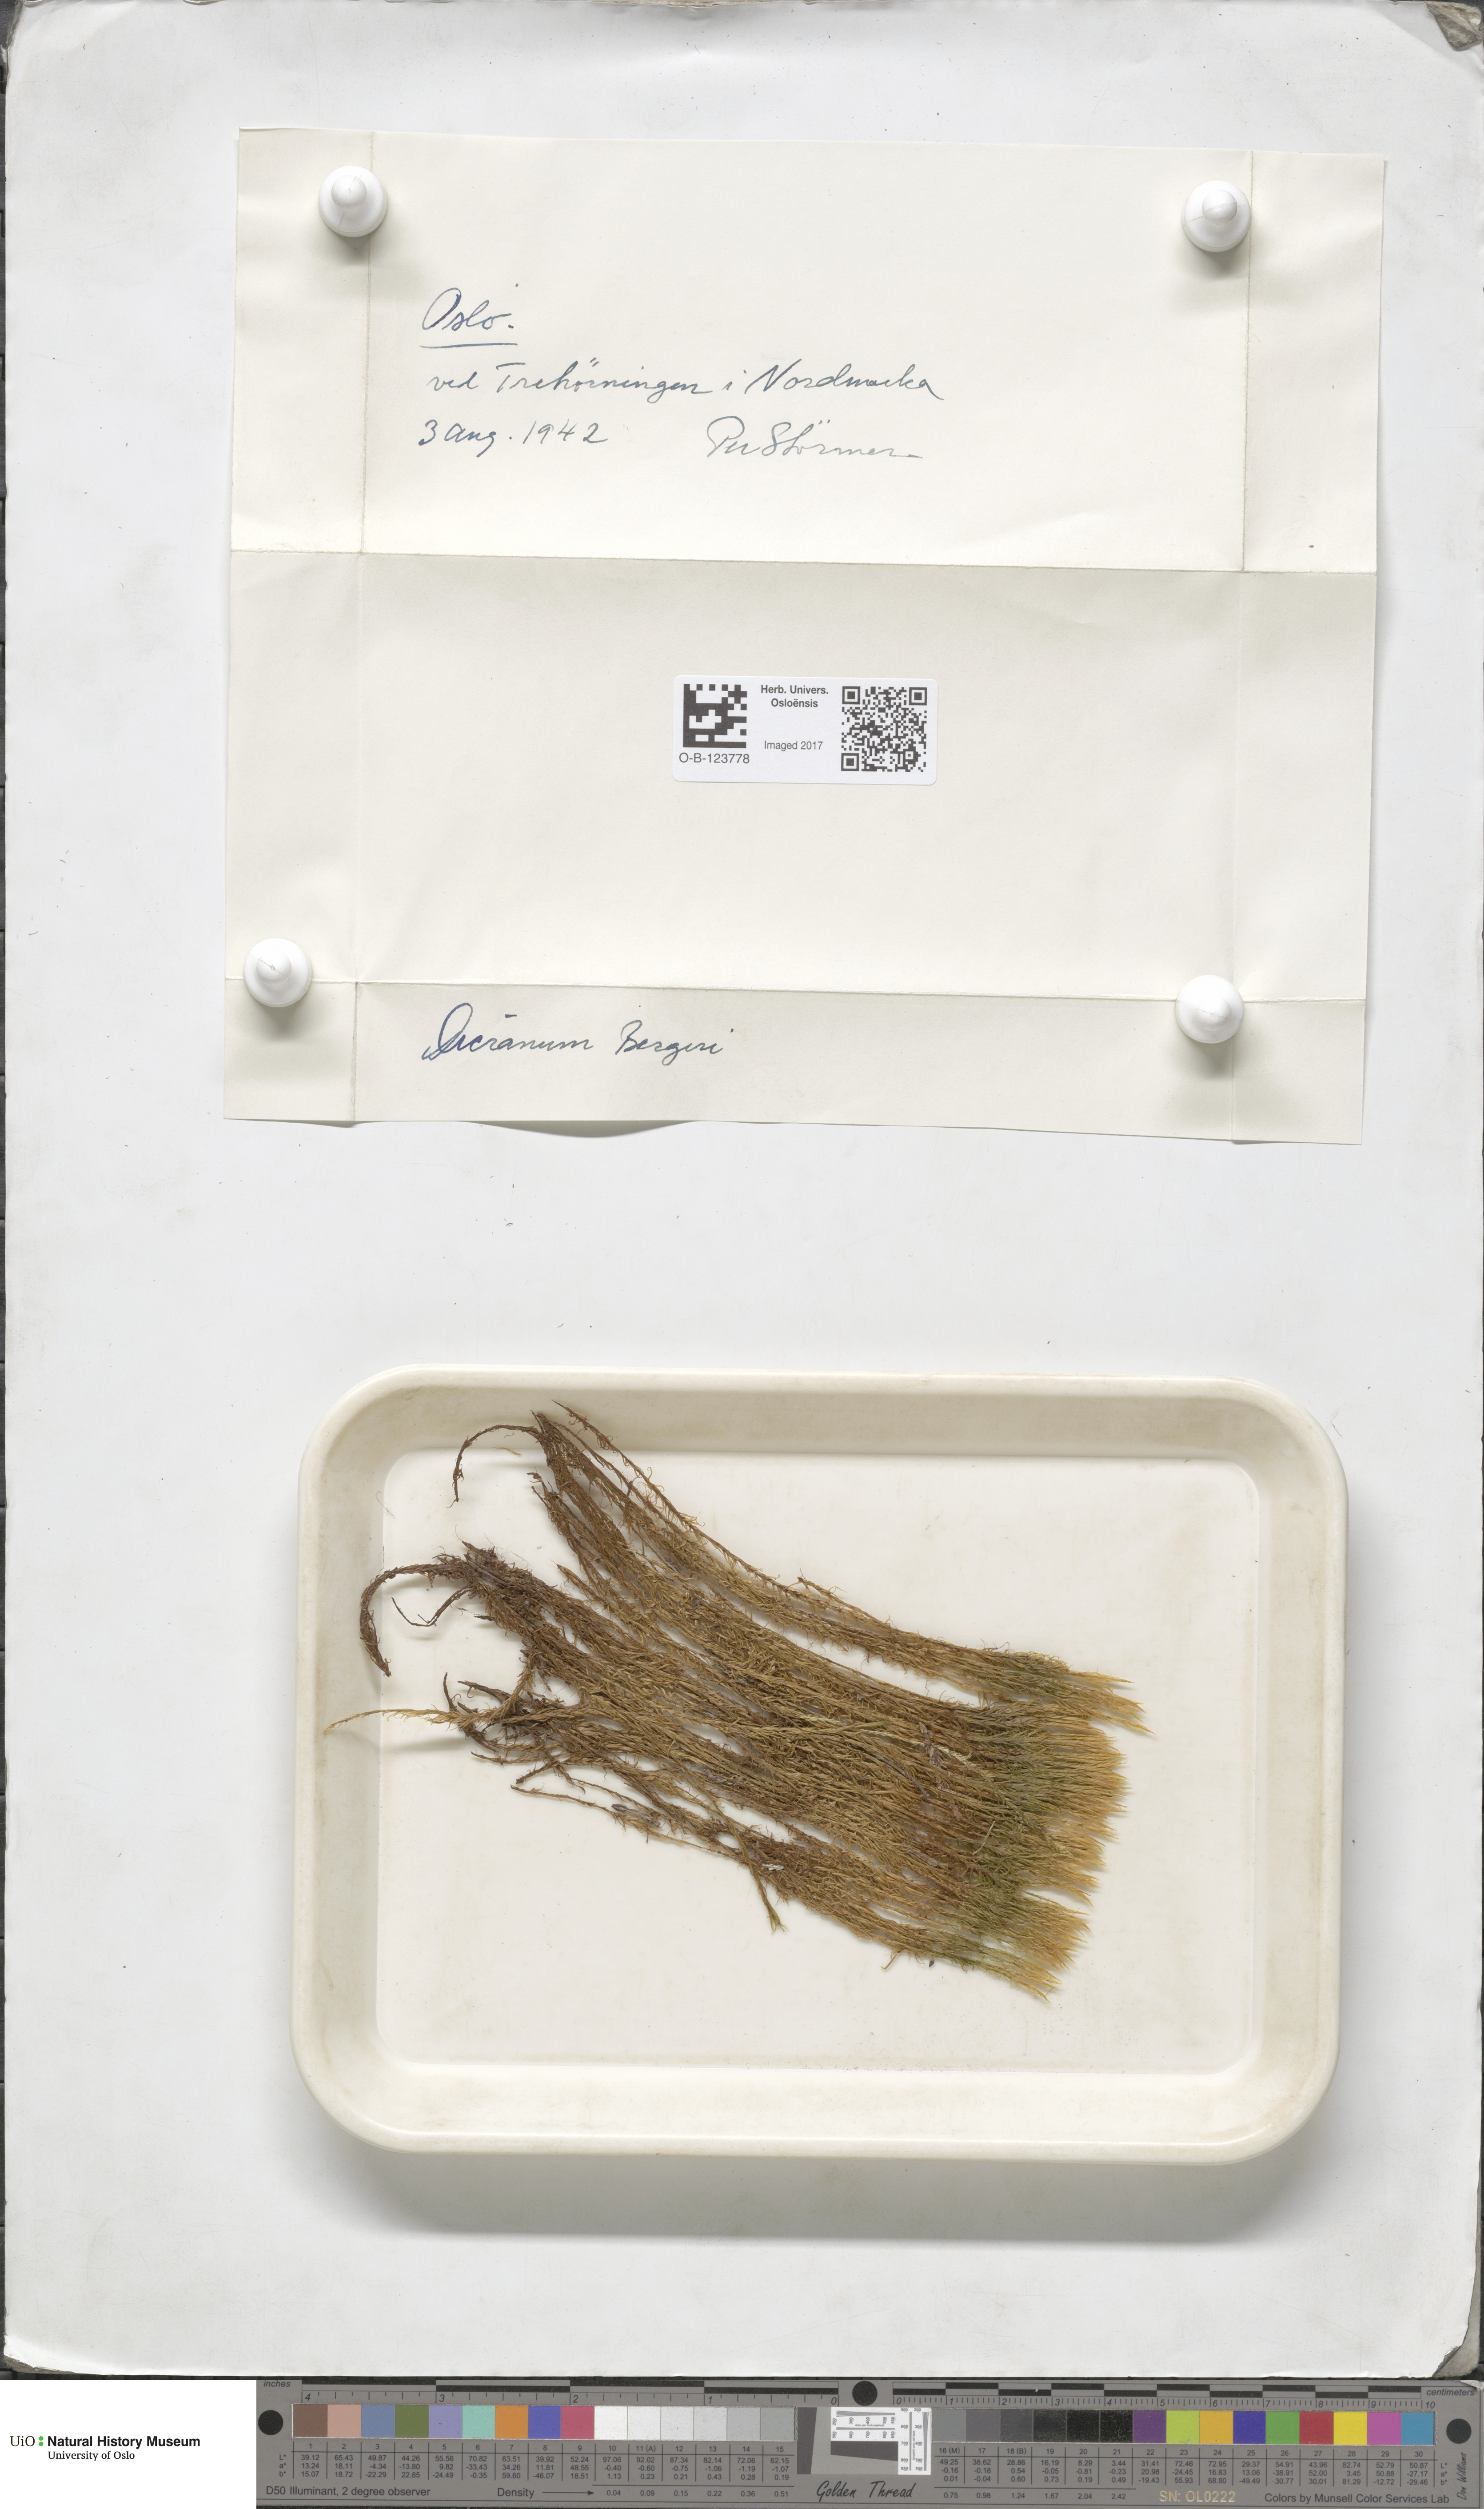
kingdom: Plantae
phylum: Bryophyta
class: Bryopsida
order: Dicranales
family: Dicranaceae
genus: Dicranum
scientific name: Dicranum undulatum
